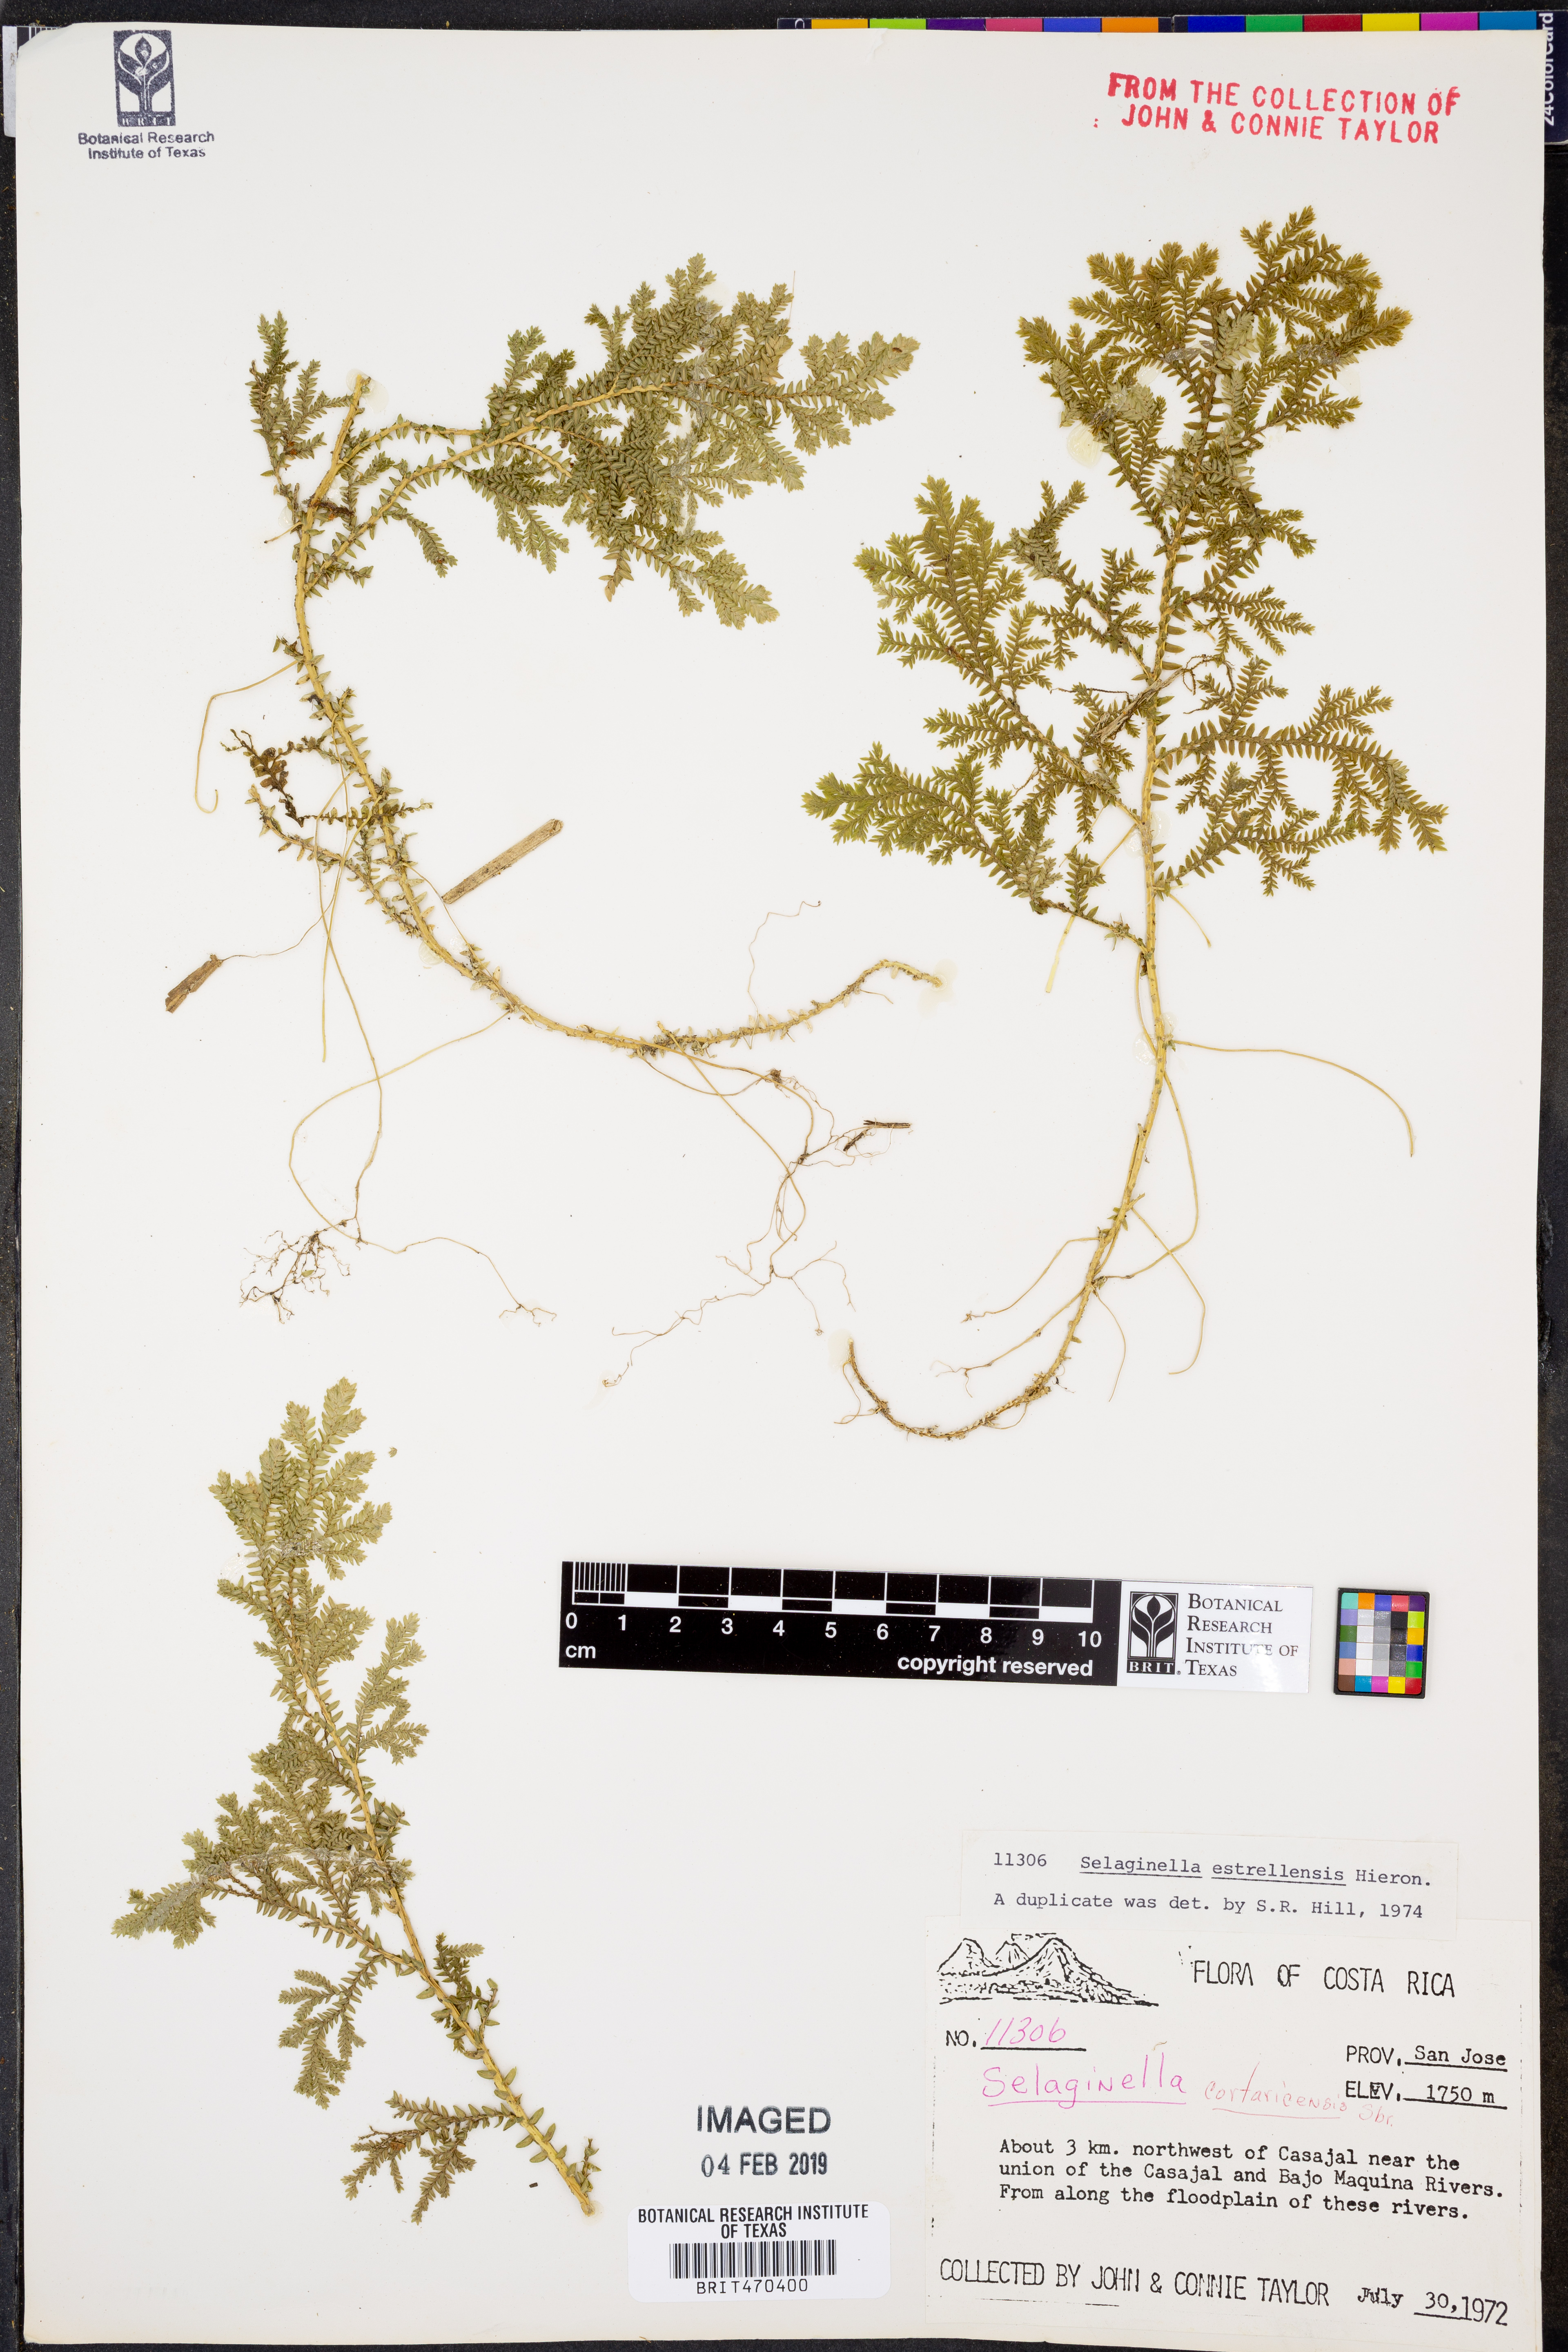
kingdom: Plantae
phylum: Tracheophyta
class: Lycopodiopsida
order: Selaginellales
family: Selaginellaceae
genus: Selaginella
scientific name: Selaginella estrellensis
